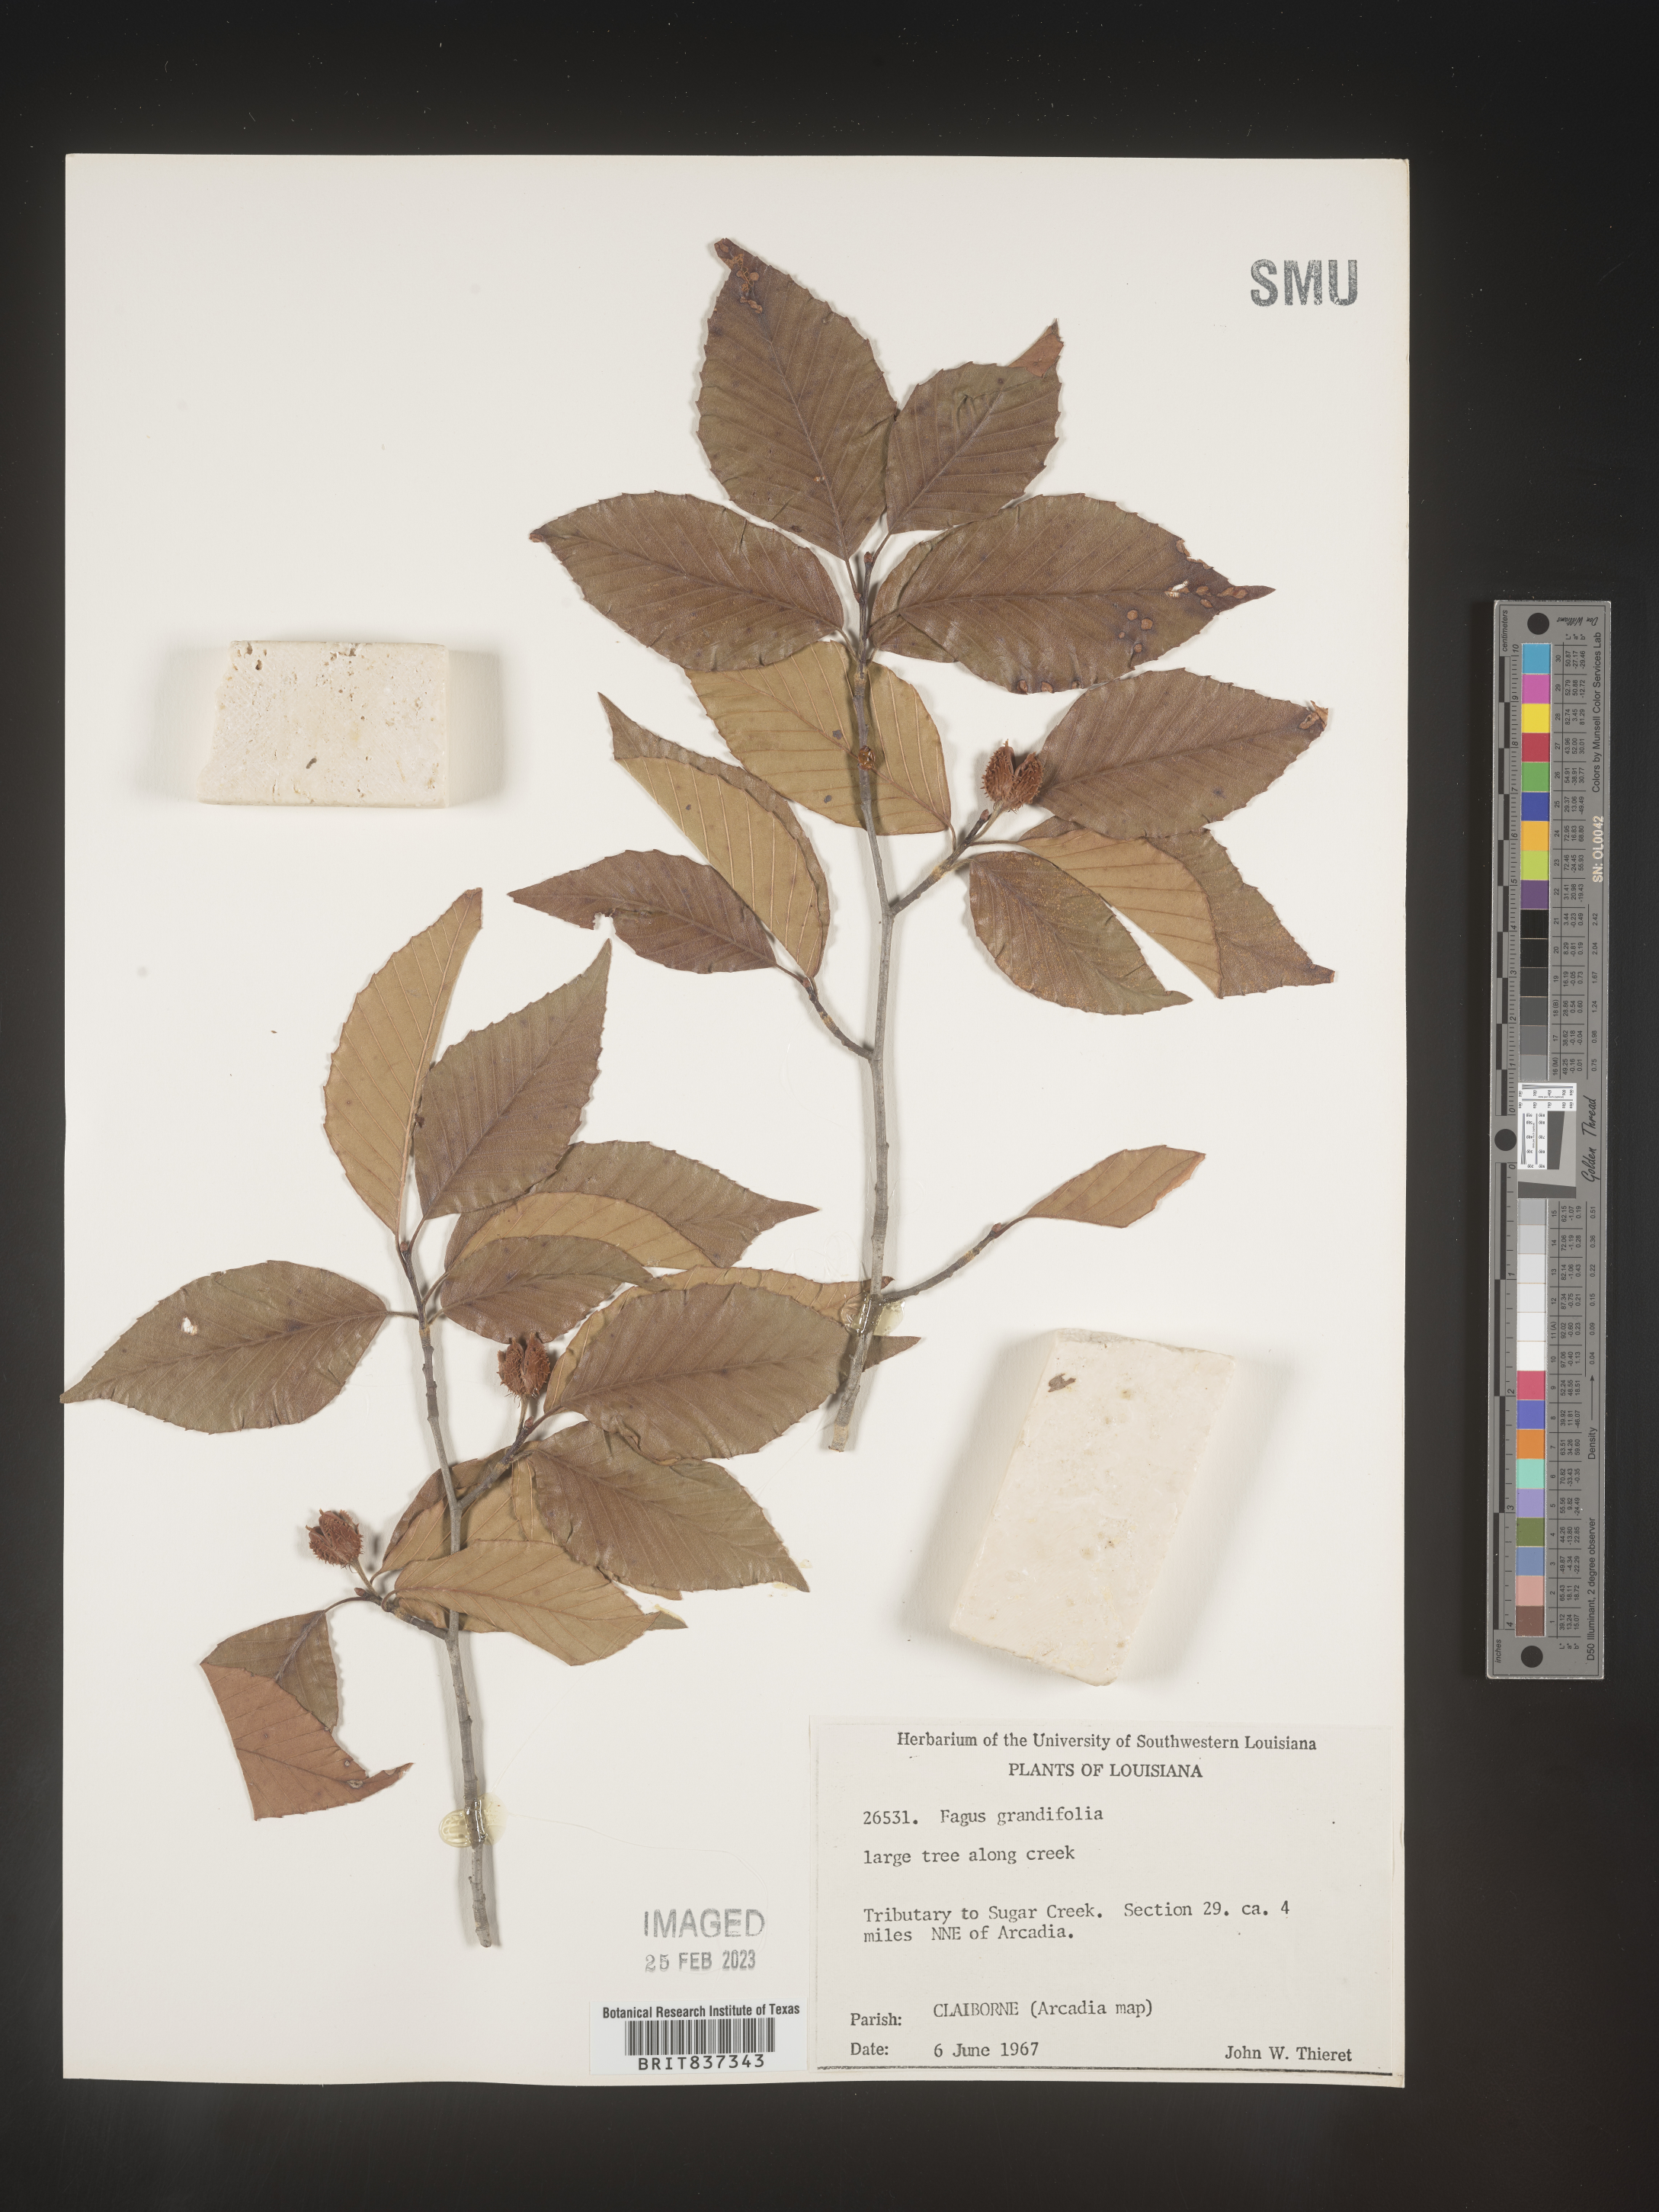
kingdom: Plantae
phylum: Tracheophyta
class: Magnoliopsida
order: Fagales
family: Fagaceae
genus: Fagus
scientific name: Fagus grandifolia
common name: American beech
